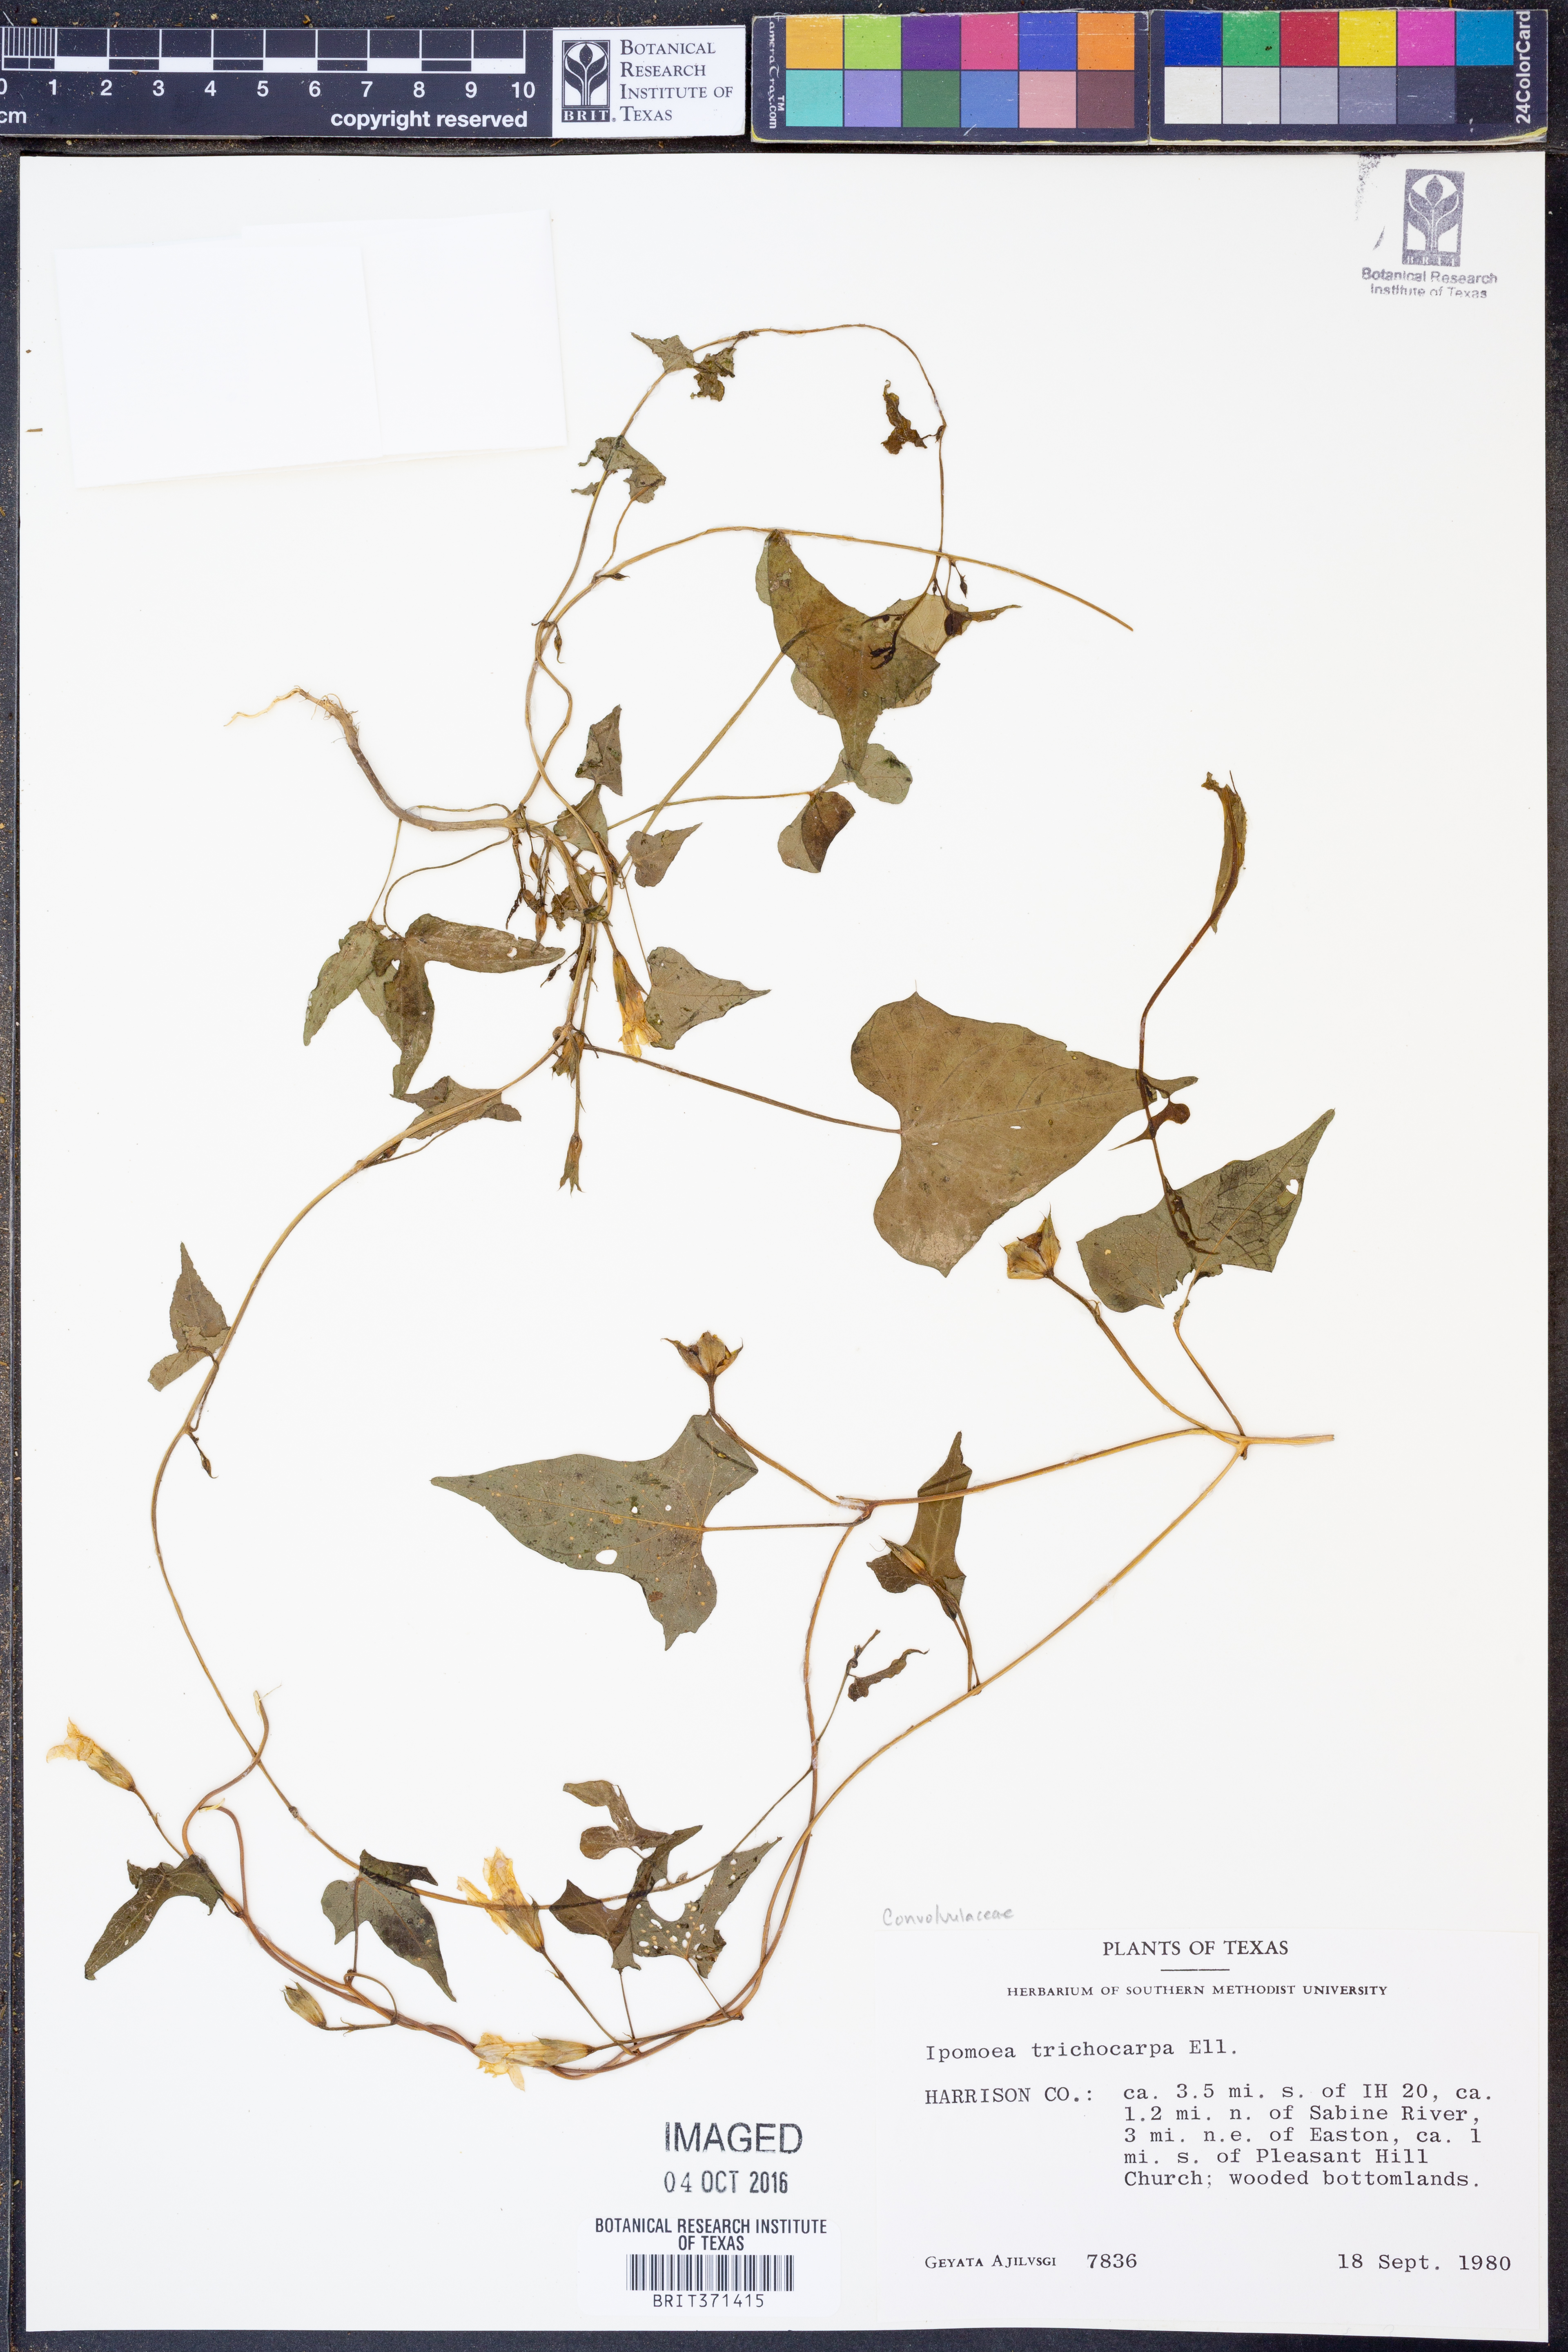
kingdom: Plantae
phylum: Tracheophyta
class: Magnoliopsida
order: Solanales
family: Convolvulaceae
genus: Ipomoea
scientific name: Ipomoea cordatotriloba
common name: Cotton morning glory
